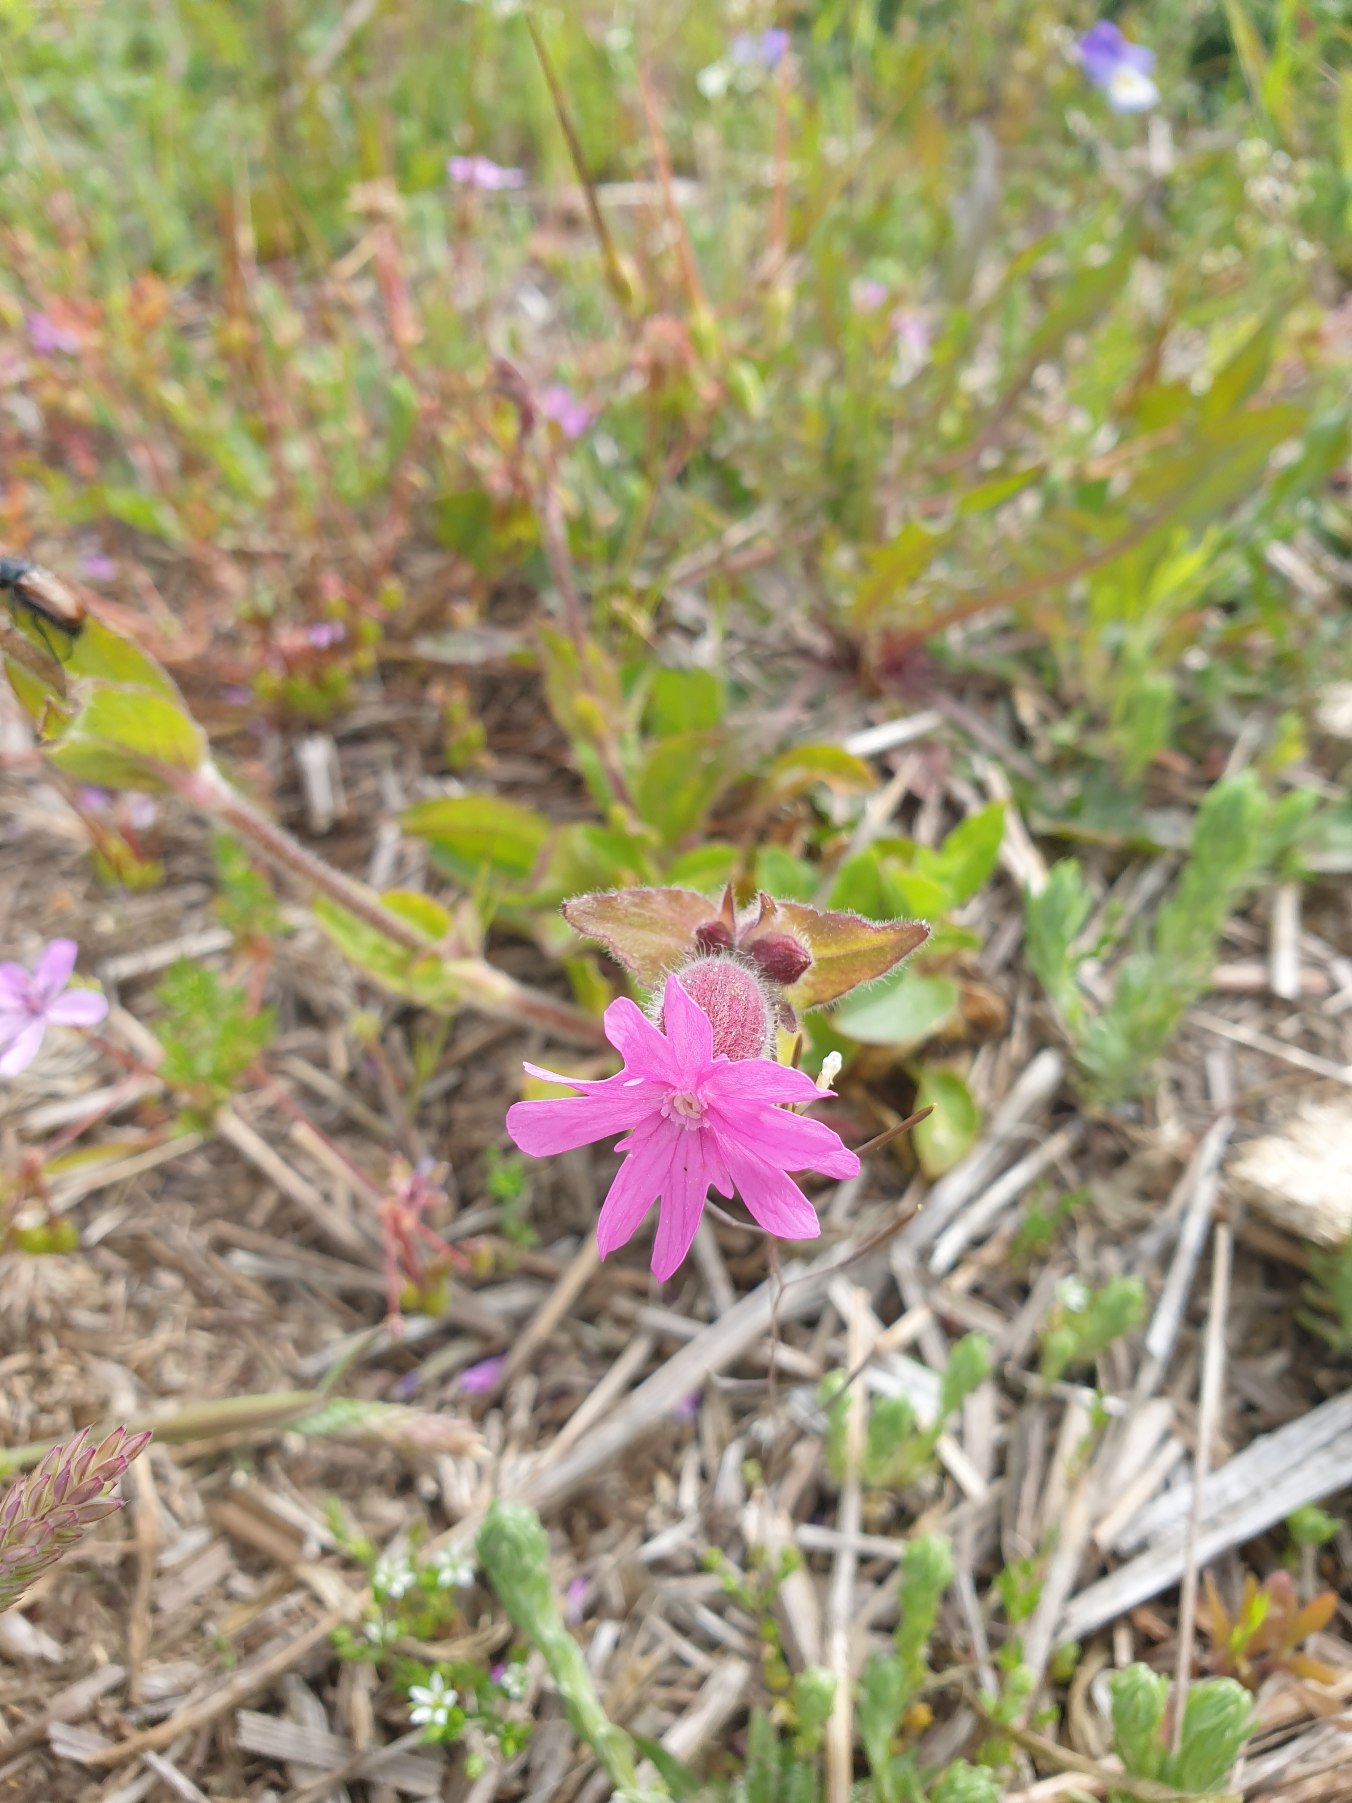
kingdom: Plantae
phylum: Tracheophyta
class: Magnoliopsida
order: Caryophyllales
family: Caryophyllaceae
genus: Silene
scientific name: Silene dioica
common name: Dagpragtstjerne
